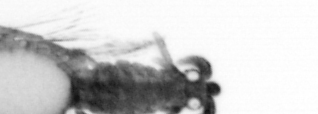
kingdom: Animalia
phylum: Annelida
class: Polychaeta
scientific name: Polychaeta
